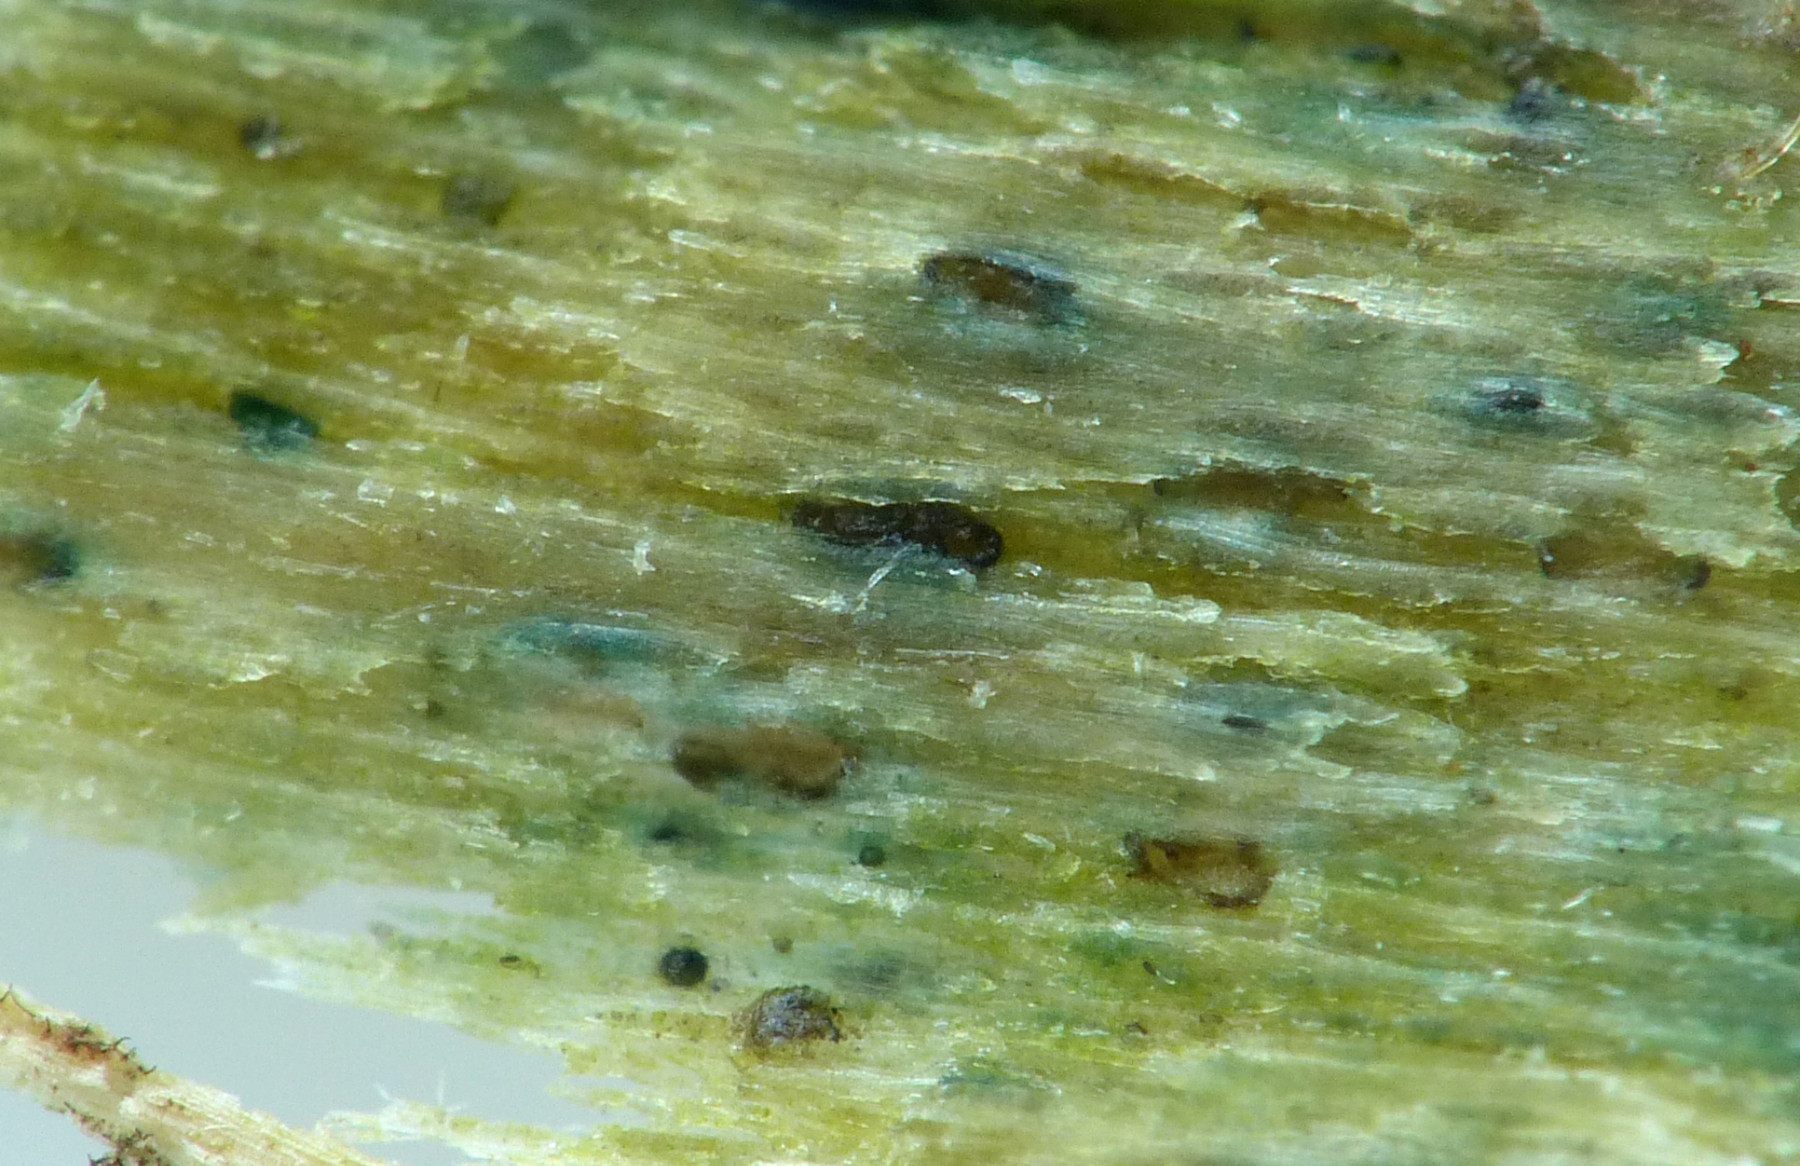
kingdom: Fungi
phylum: Ascomycota
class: Leotiomycetes
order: Helotiales
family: Helotiaceae
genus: Durella
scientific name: Durella atrocyanea
